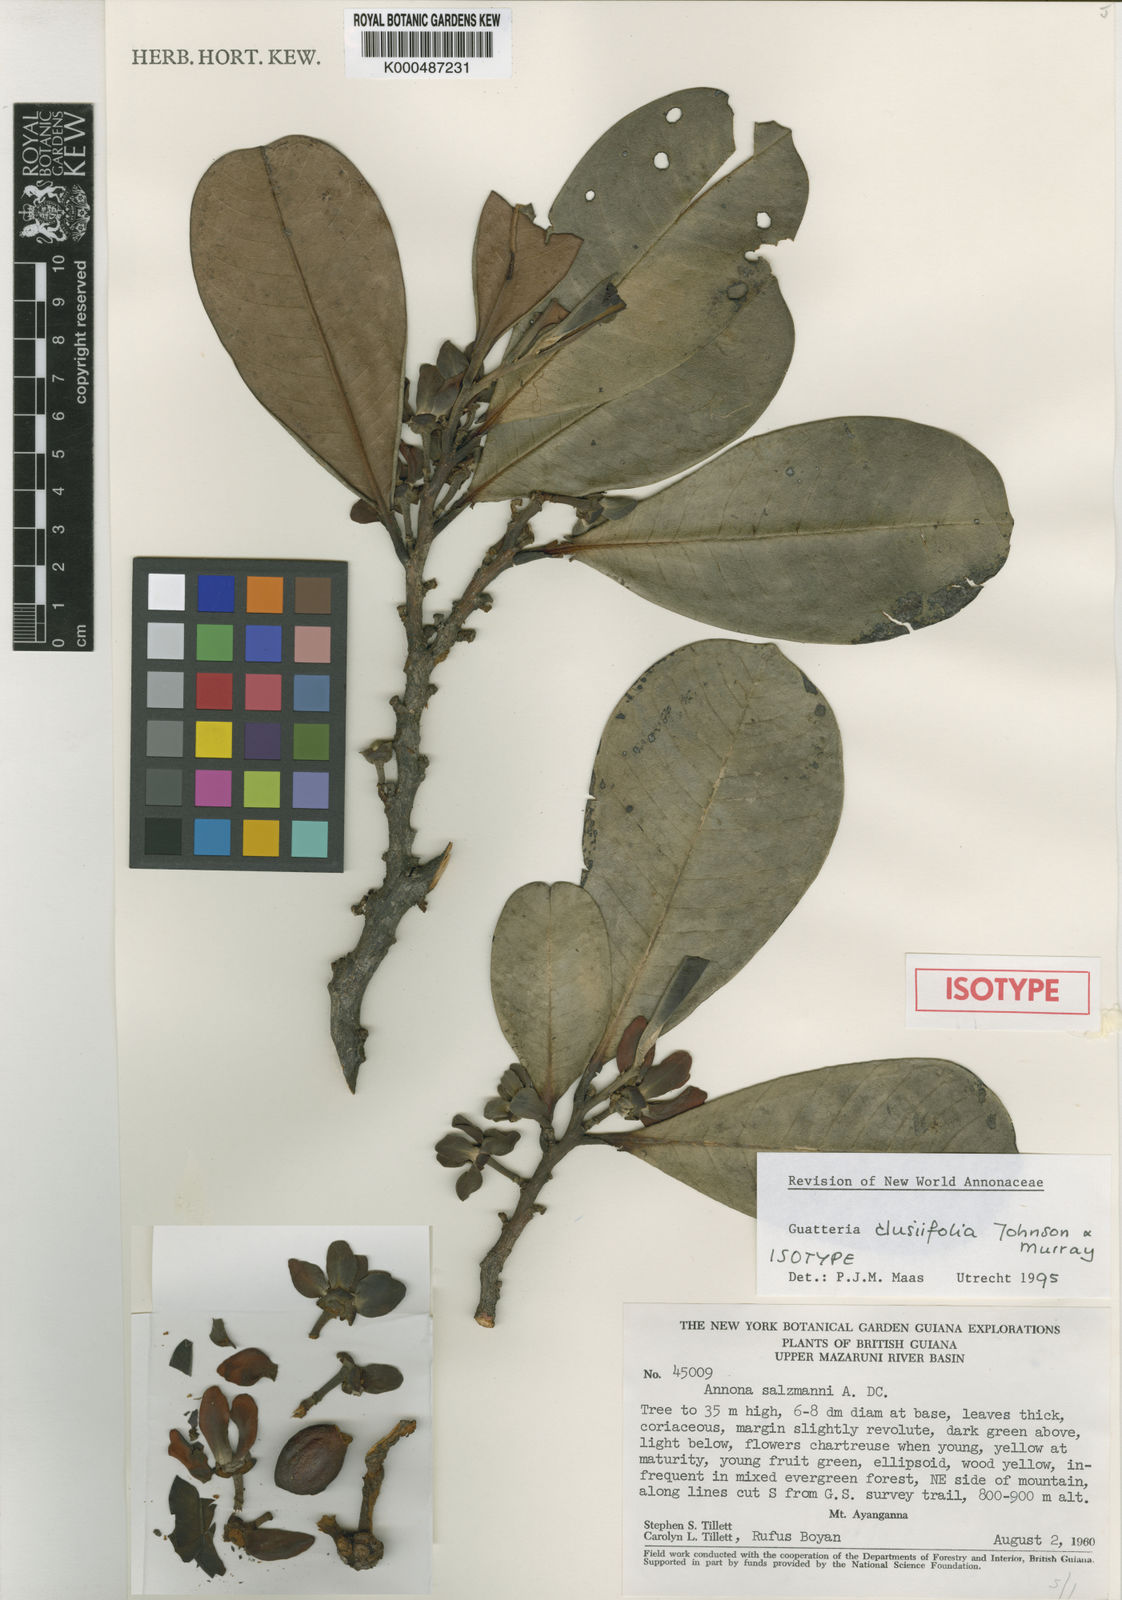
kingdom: Plantae
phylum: Tracheophyta
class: Magnoliopsida
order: Magnoliales
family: Annonaceae
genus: Guatteria
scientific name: Guatteria clusiifolia
